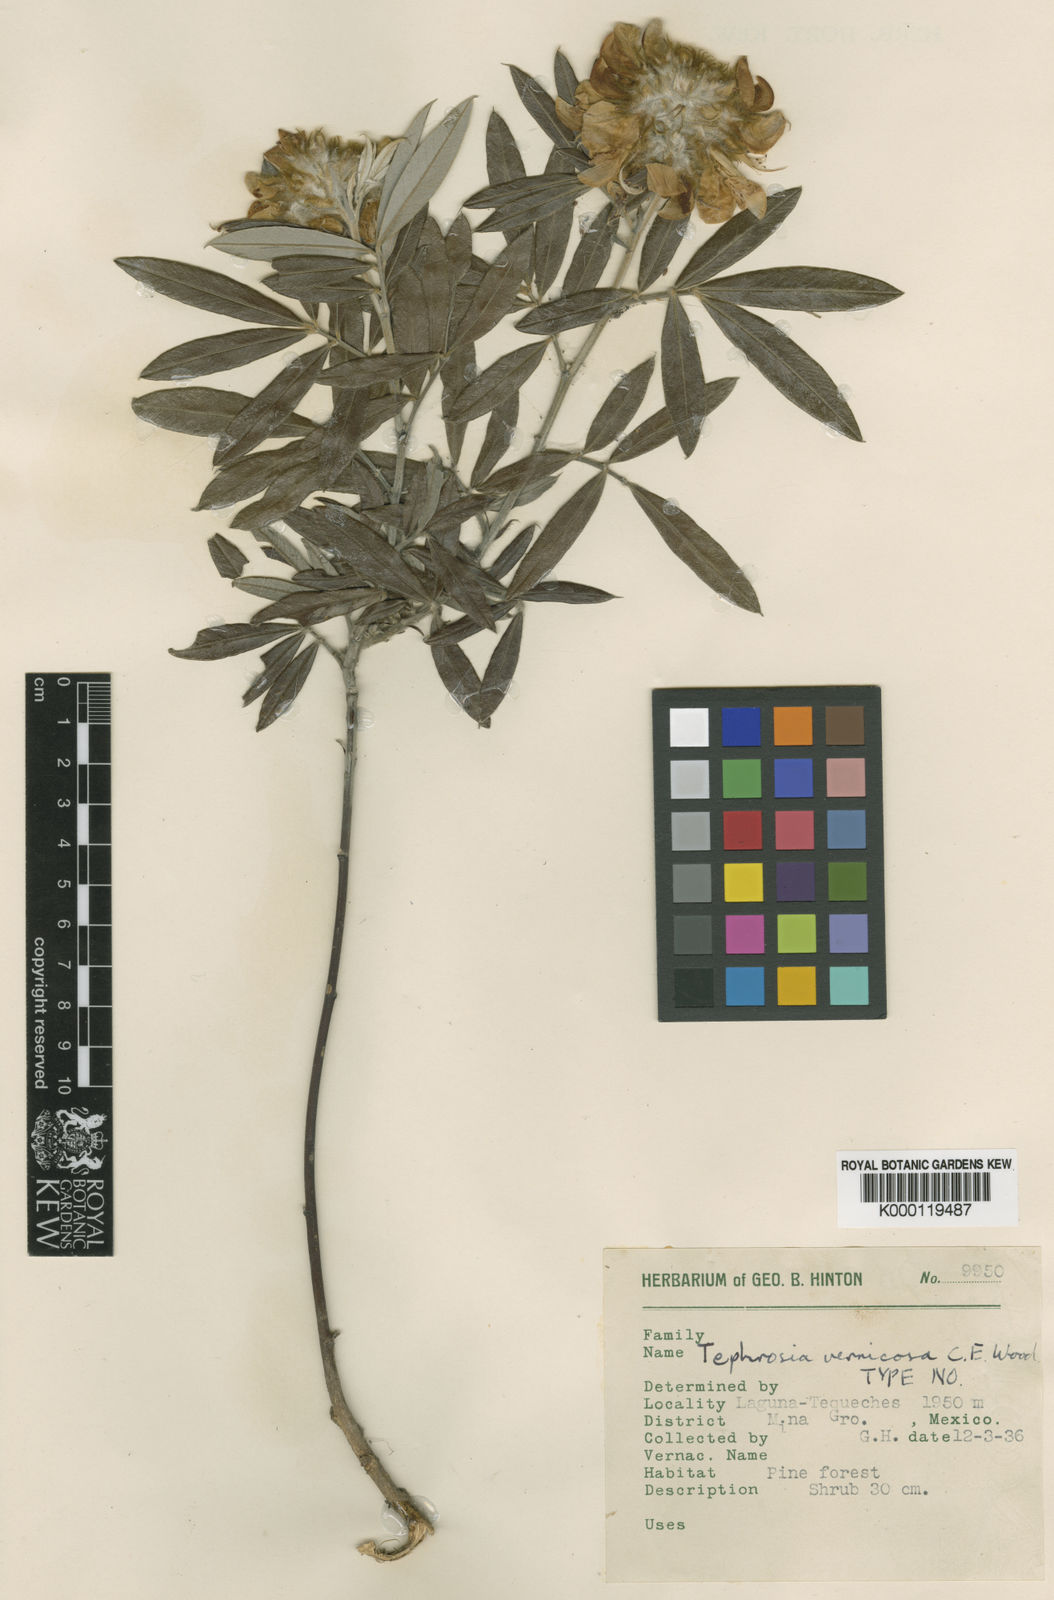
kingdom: Plantae
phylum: Tracheophyta
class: Magnoliopsida
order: Fabales
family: Fabaceae
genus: Tephrosia
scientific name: Tephrosia vernicosa
